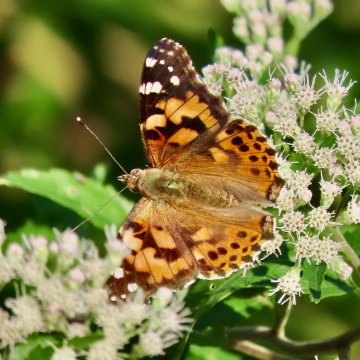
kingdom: Animalia
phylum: Arthropoda
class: Insecta
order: Lepidoptera
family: Nymphalidae
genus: Vanessa
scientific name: Vanessa cardui
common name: Painted Lady
